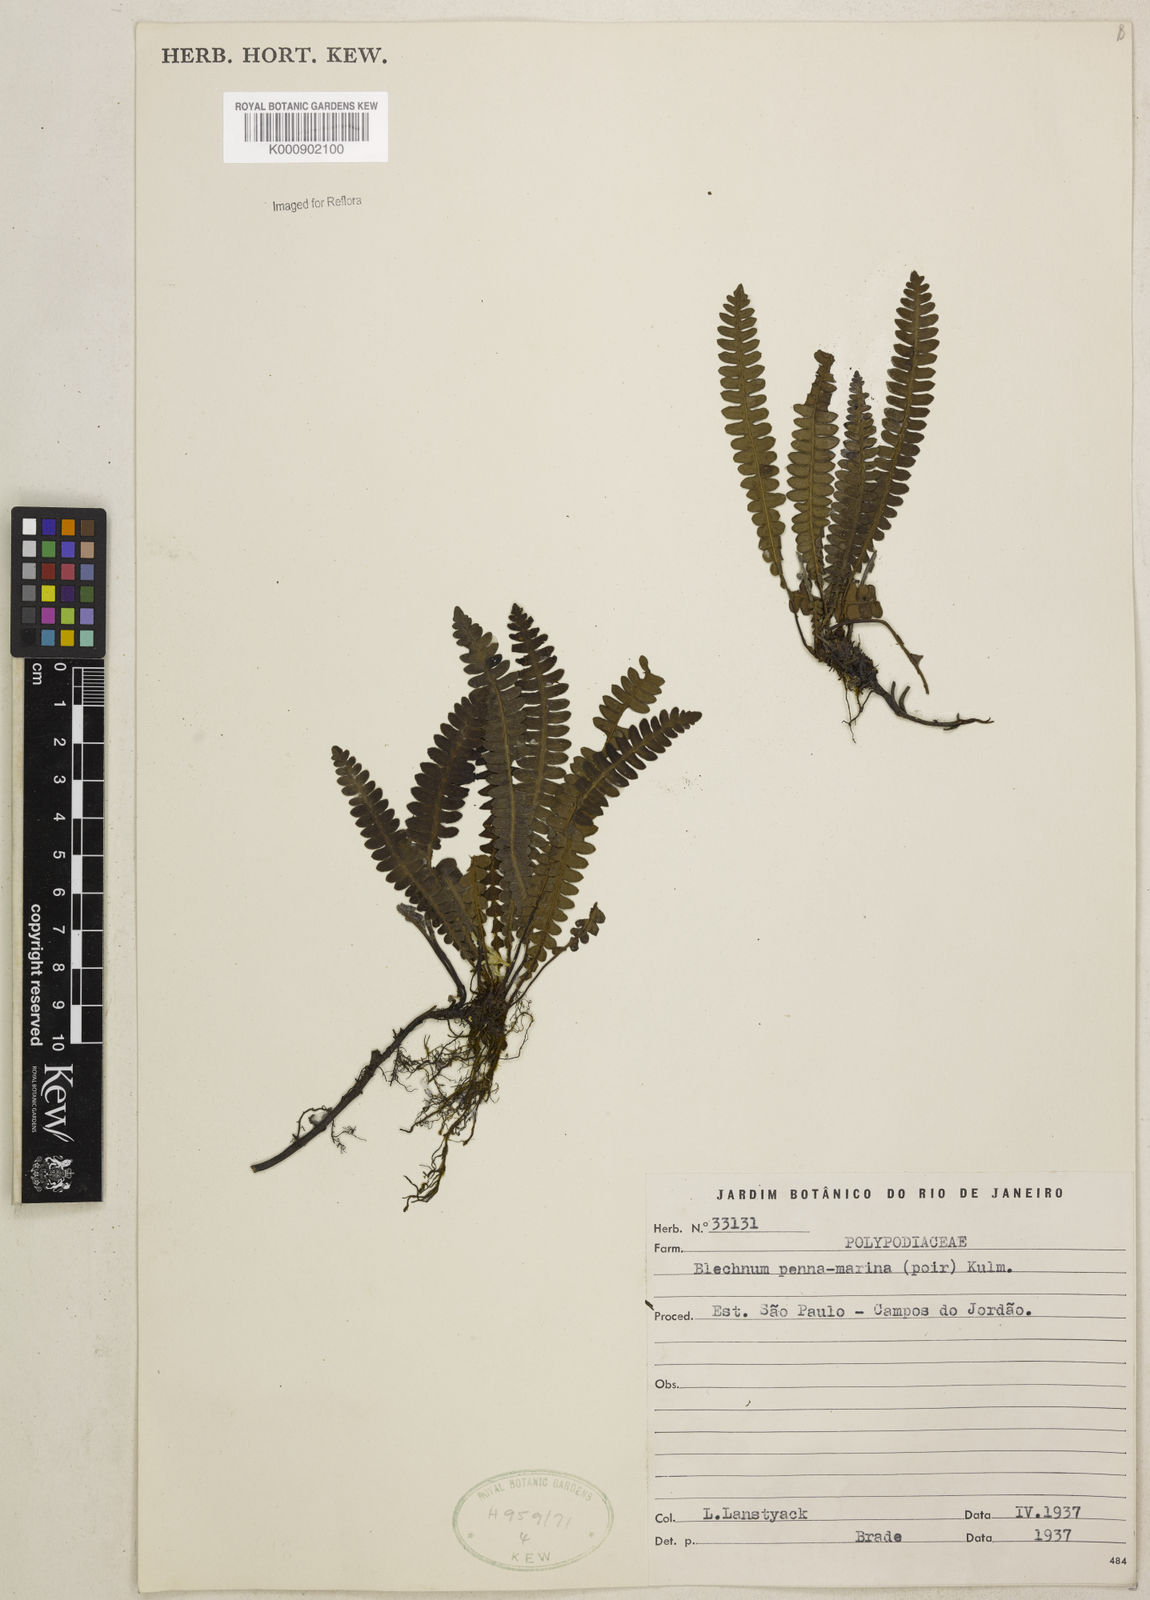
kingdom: Plantae
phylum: Tracheophyta
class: Polypodiopsida
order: Polypodiales
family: Blechnaceae
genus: Austroblechnum
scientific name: Austroblechnum penna-marina
